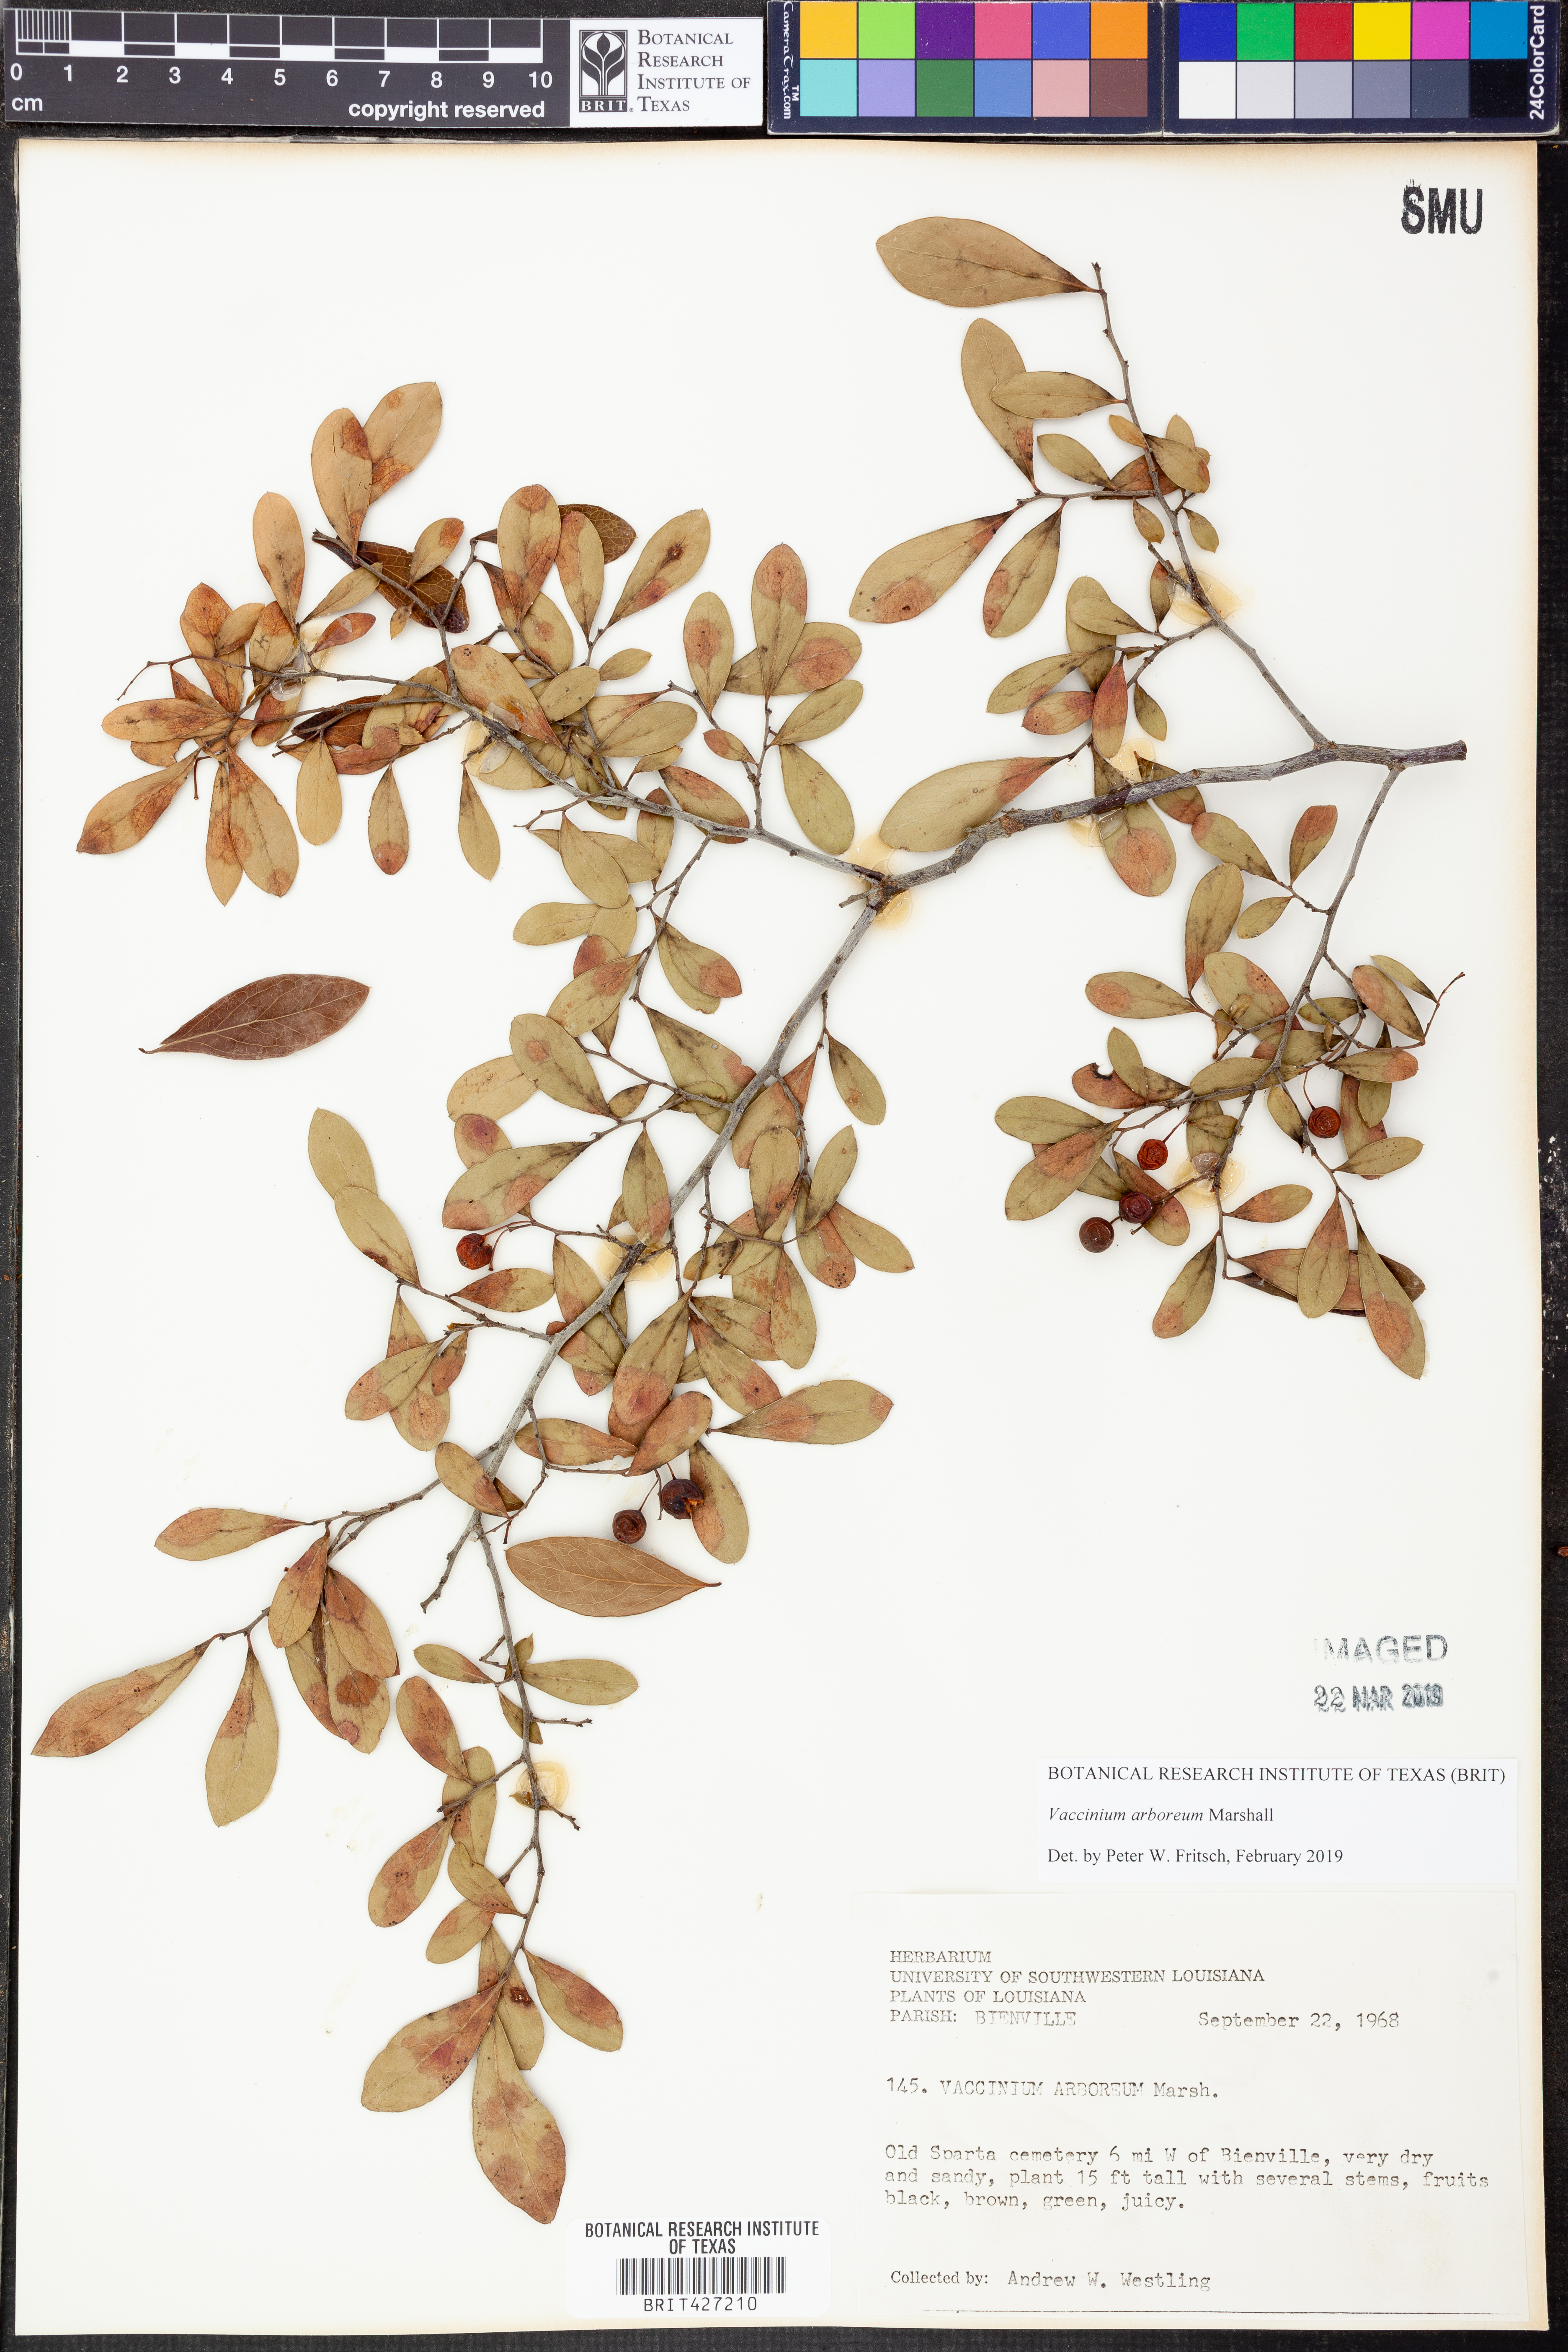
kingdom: Plantae
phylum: Tracheophyta
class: Magnoliopsida
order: Ericales
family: Ericaceae
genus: Vaccinium
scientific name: Vaccinium arboreum
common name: Farkleberry
